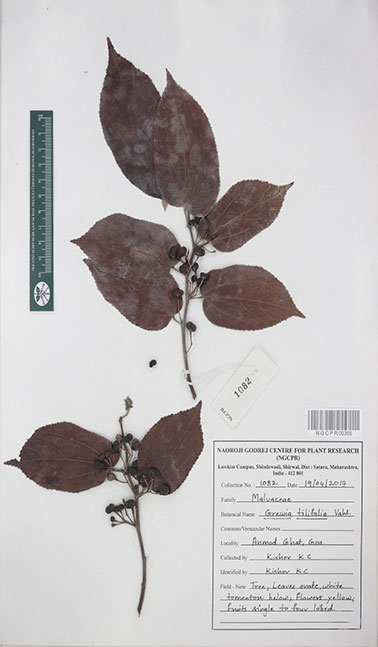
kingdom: Plantae
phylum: Tracheophyta
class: Magnoliopsida
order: Malvales
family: Malvaceae
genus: Grewia
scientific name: Grewia tiliifolia
